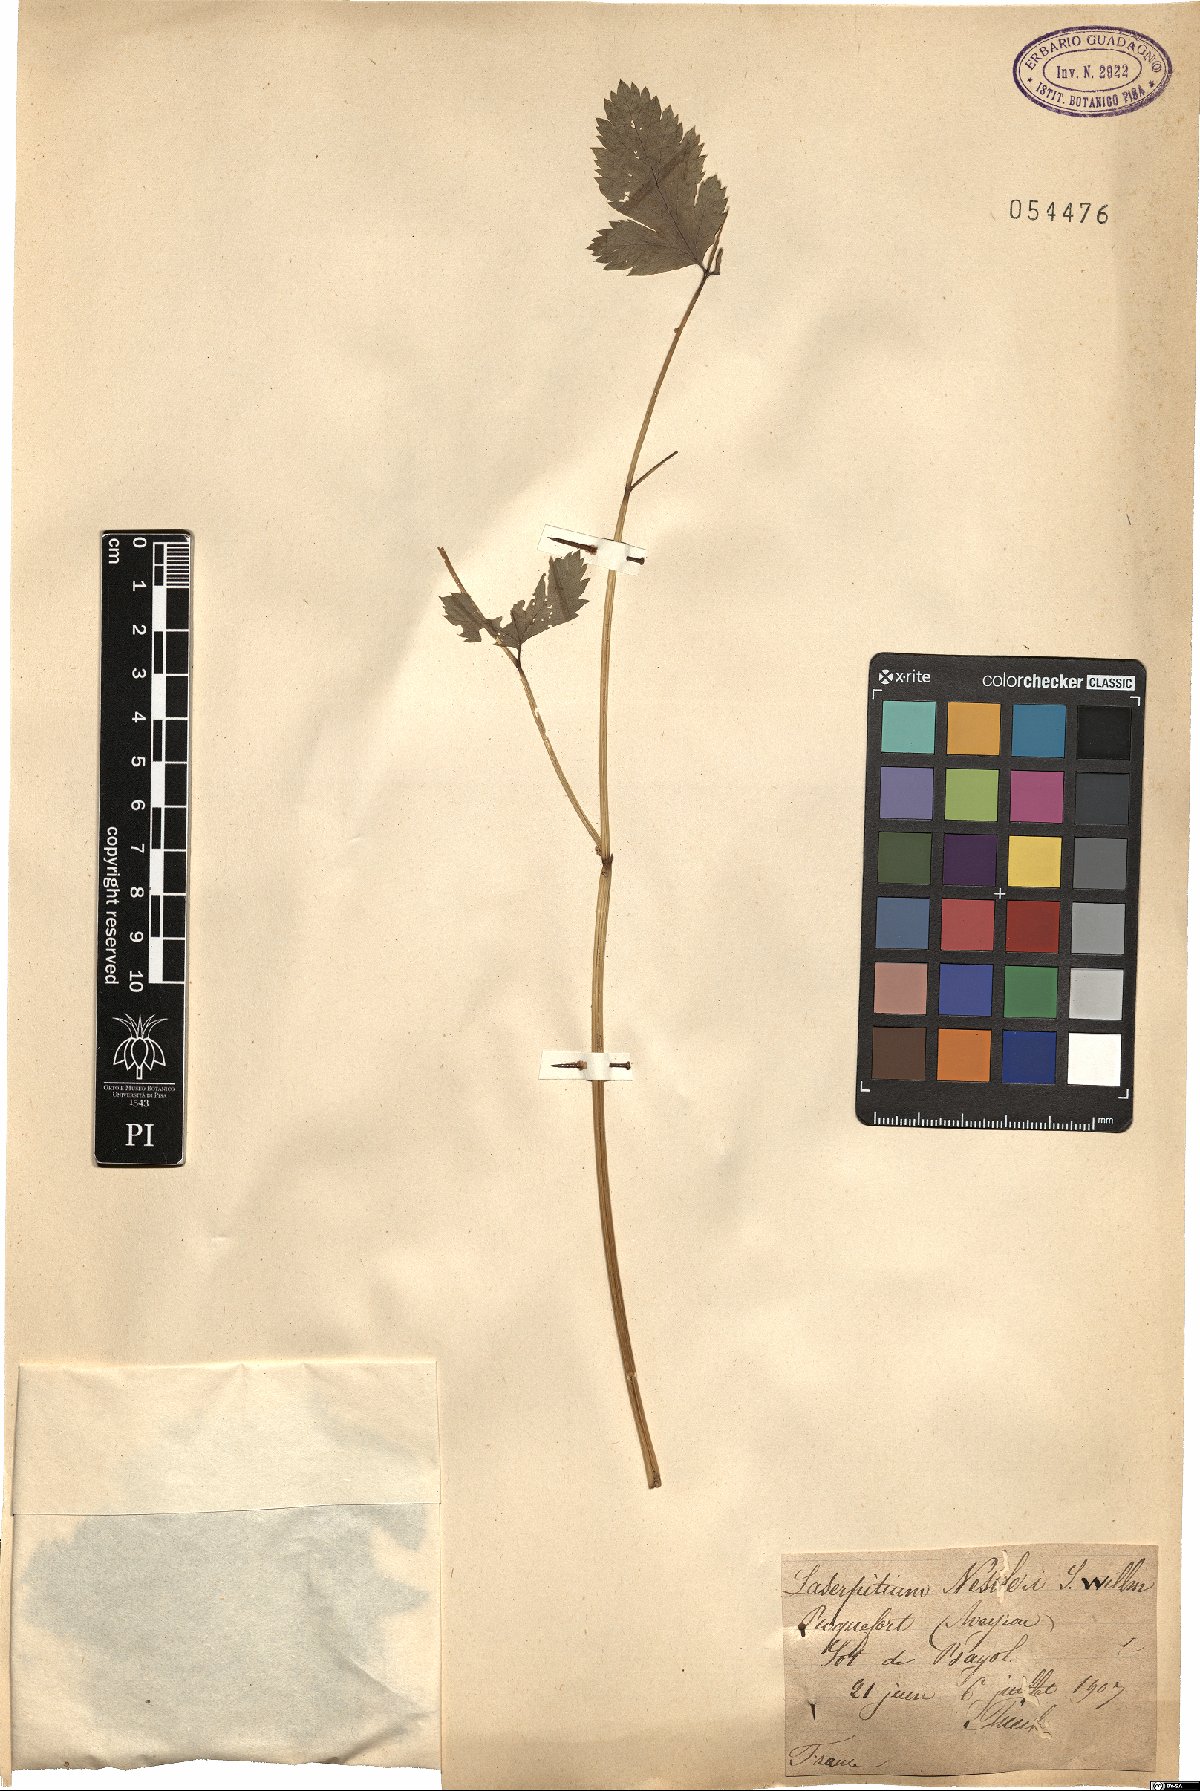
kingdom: Plantae
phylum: Tracheophyta
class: Magnoliopsida
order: Apiales
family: Apiaceae
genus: Thapsia
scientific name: Thapsia nestleri
